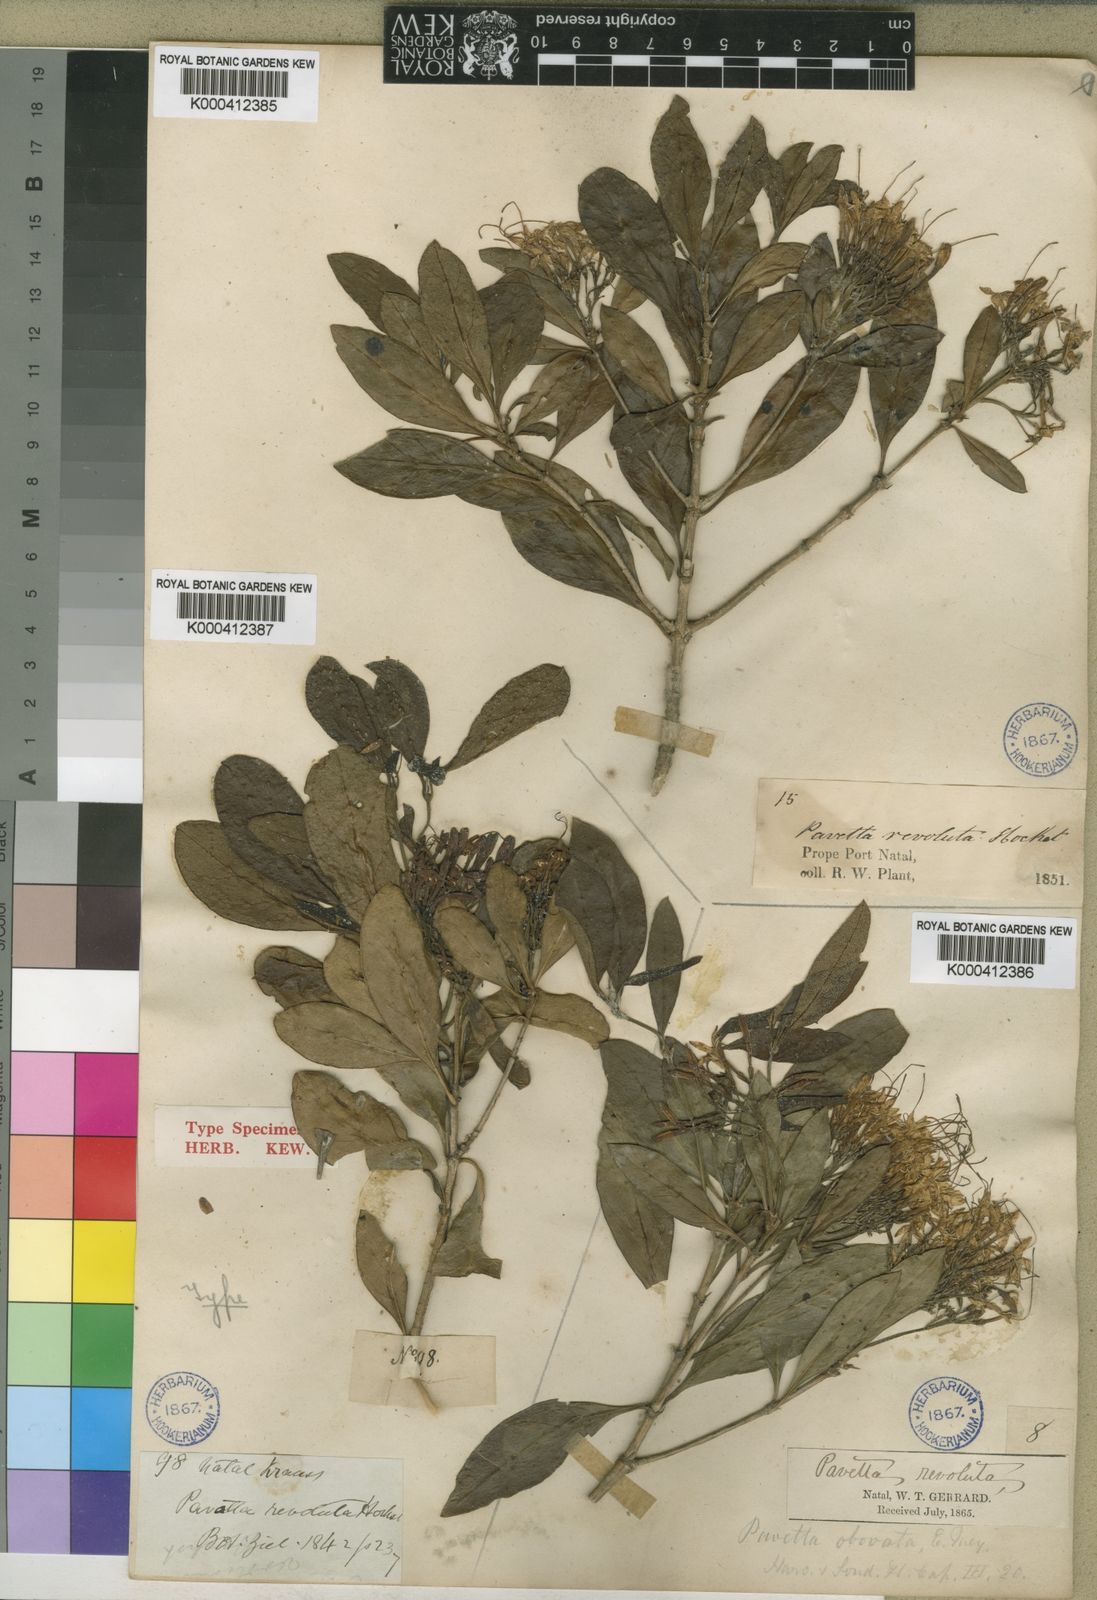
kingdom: Plantae
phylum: Tracheophyta
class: Magnoliopsida
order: Gentianales
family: Rubiaceae
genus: Pavetta
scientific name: Pavetta revoluta
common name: Dune brides-bush
